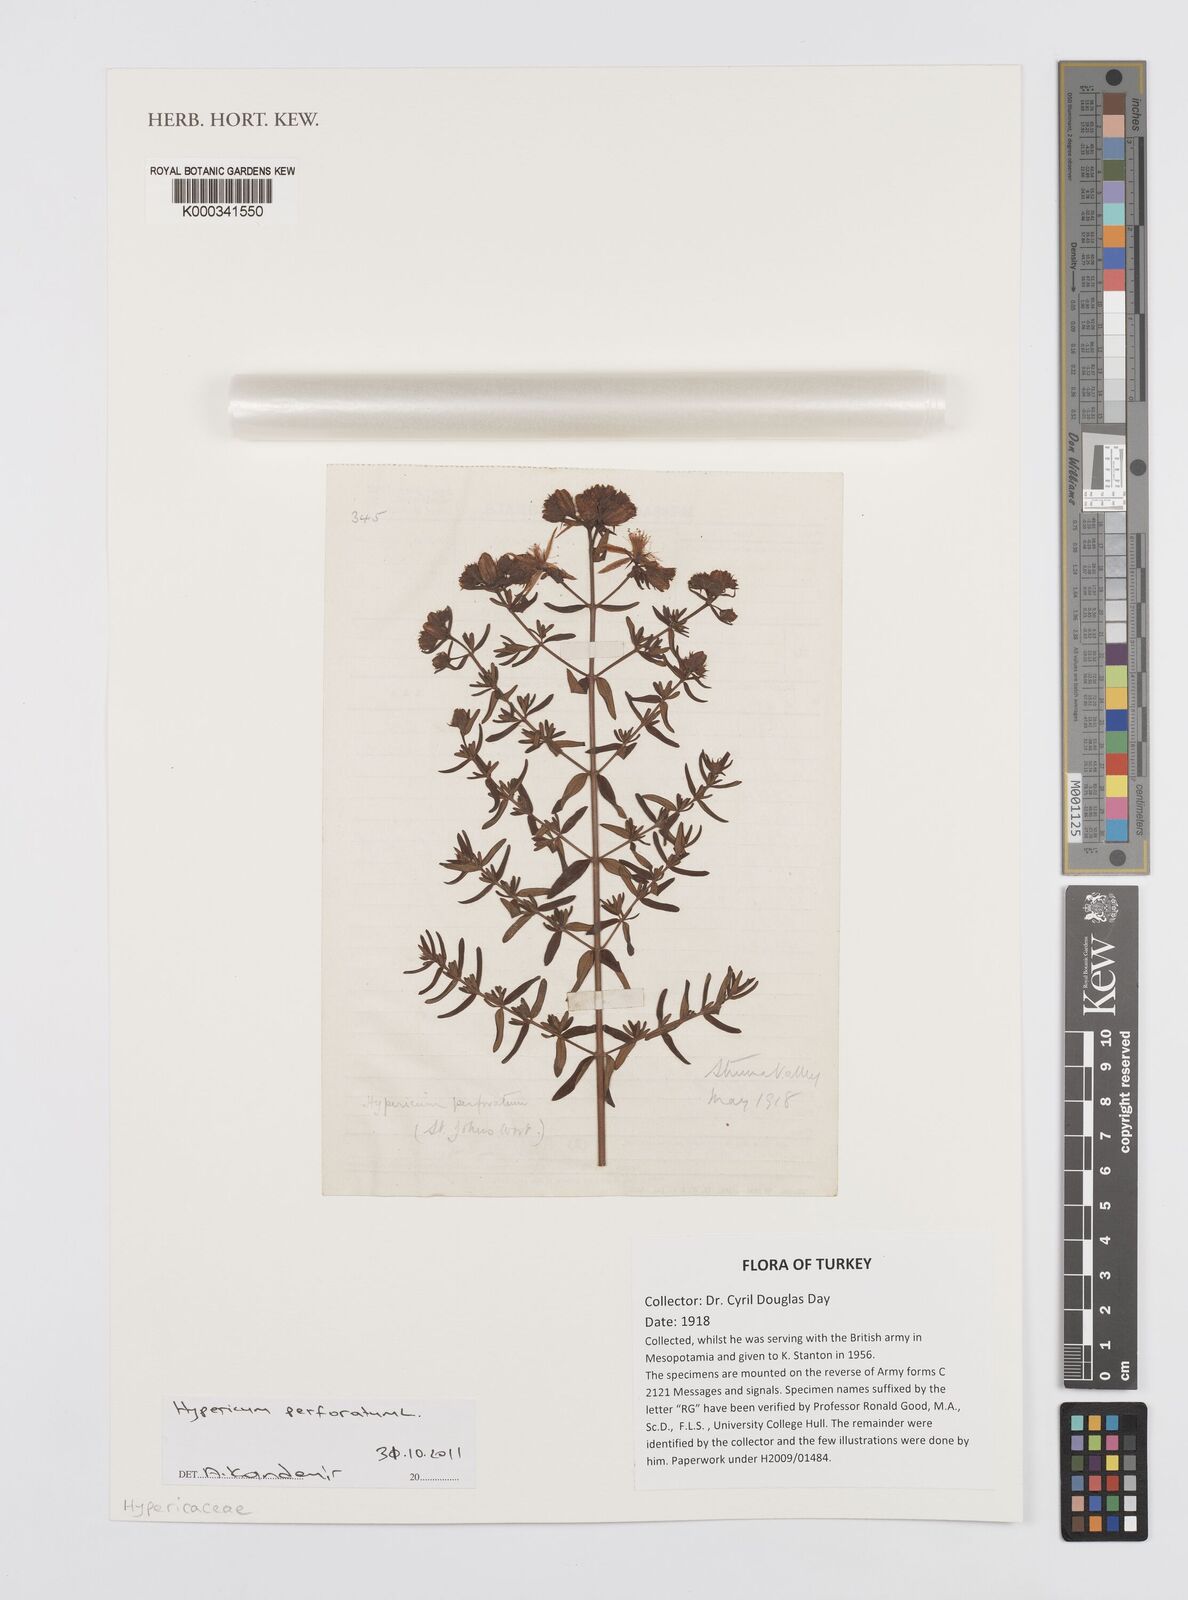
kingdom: Plantae
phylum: Tracheophyta
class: Magnoliopsida
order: Malpighiales
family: Hypericaceae
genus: Hypericum
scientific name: Hypericum perforatum
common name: Common st. johnswort
